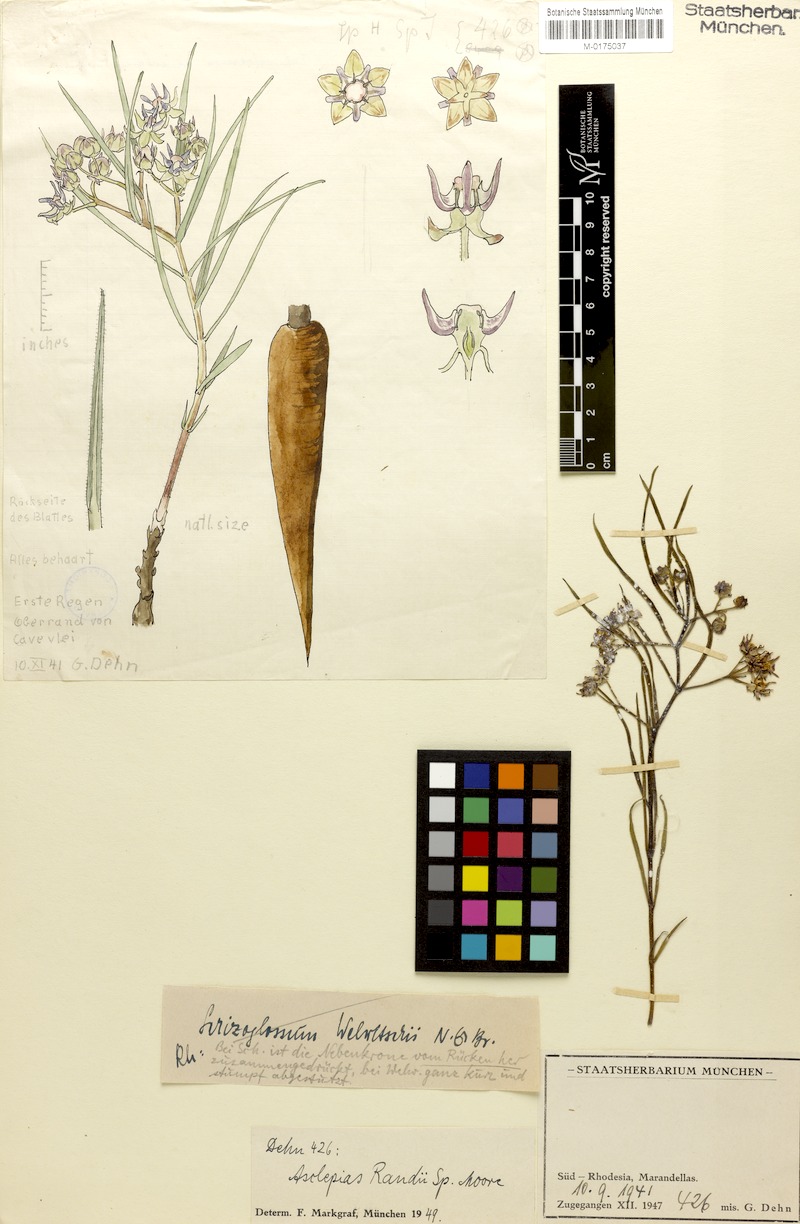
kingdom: Plantae
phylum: Tracheophyta
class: Magnoliopsida
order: Gentianales
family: Apocynaceae
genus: Asclepias
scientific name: Asclepias randii
